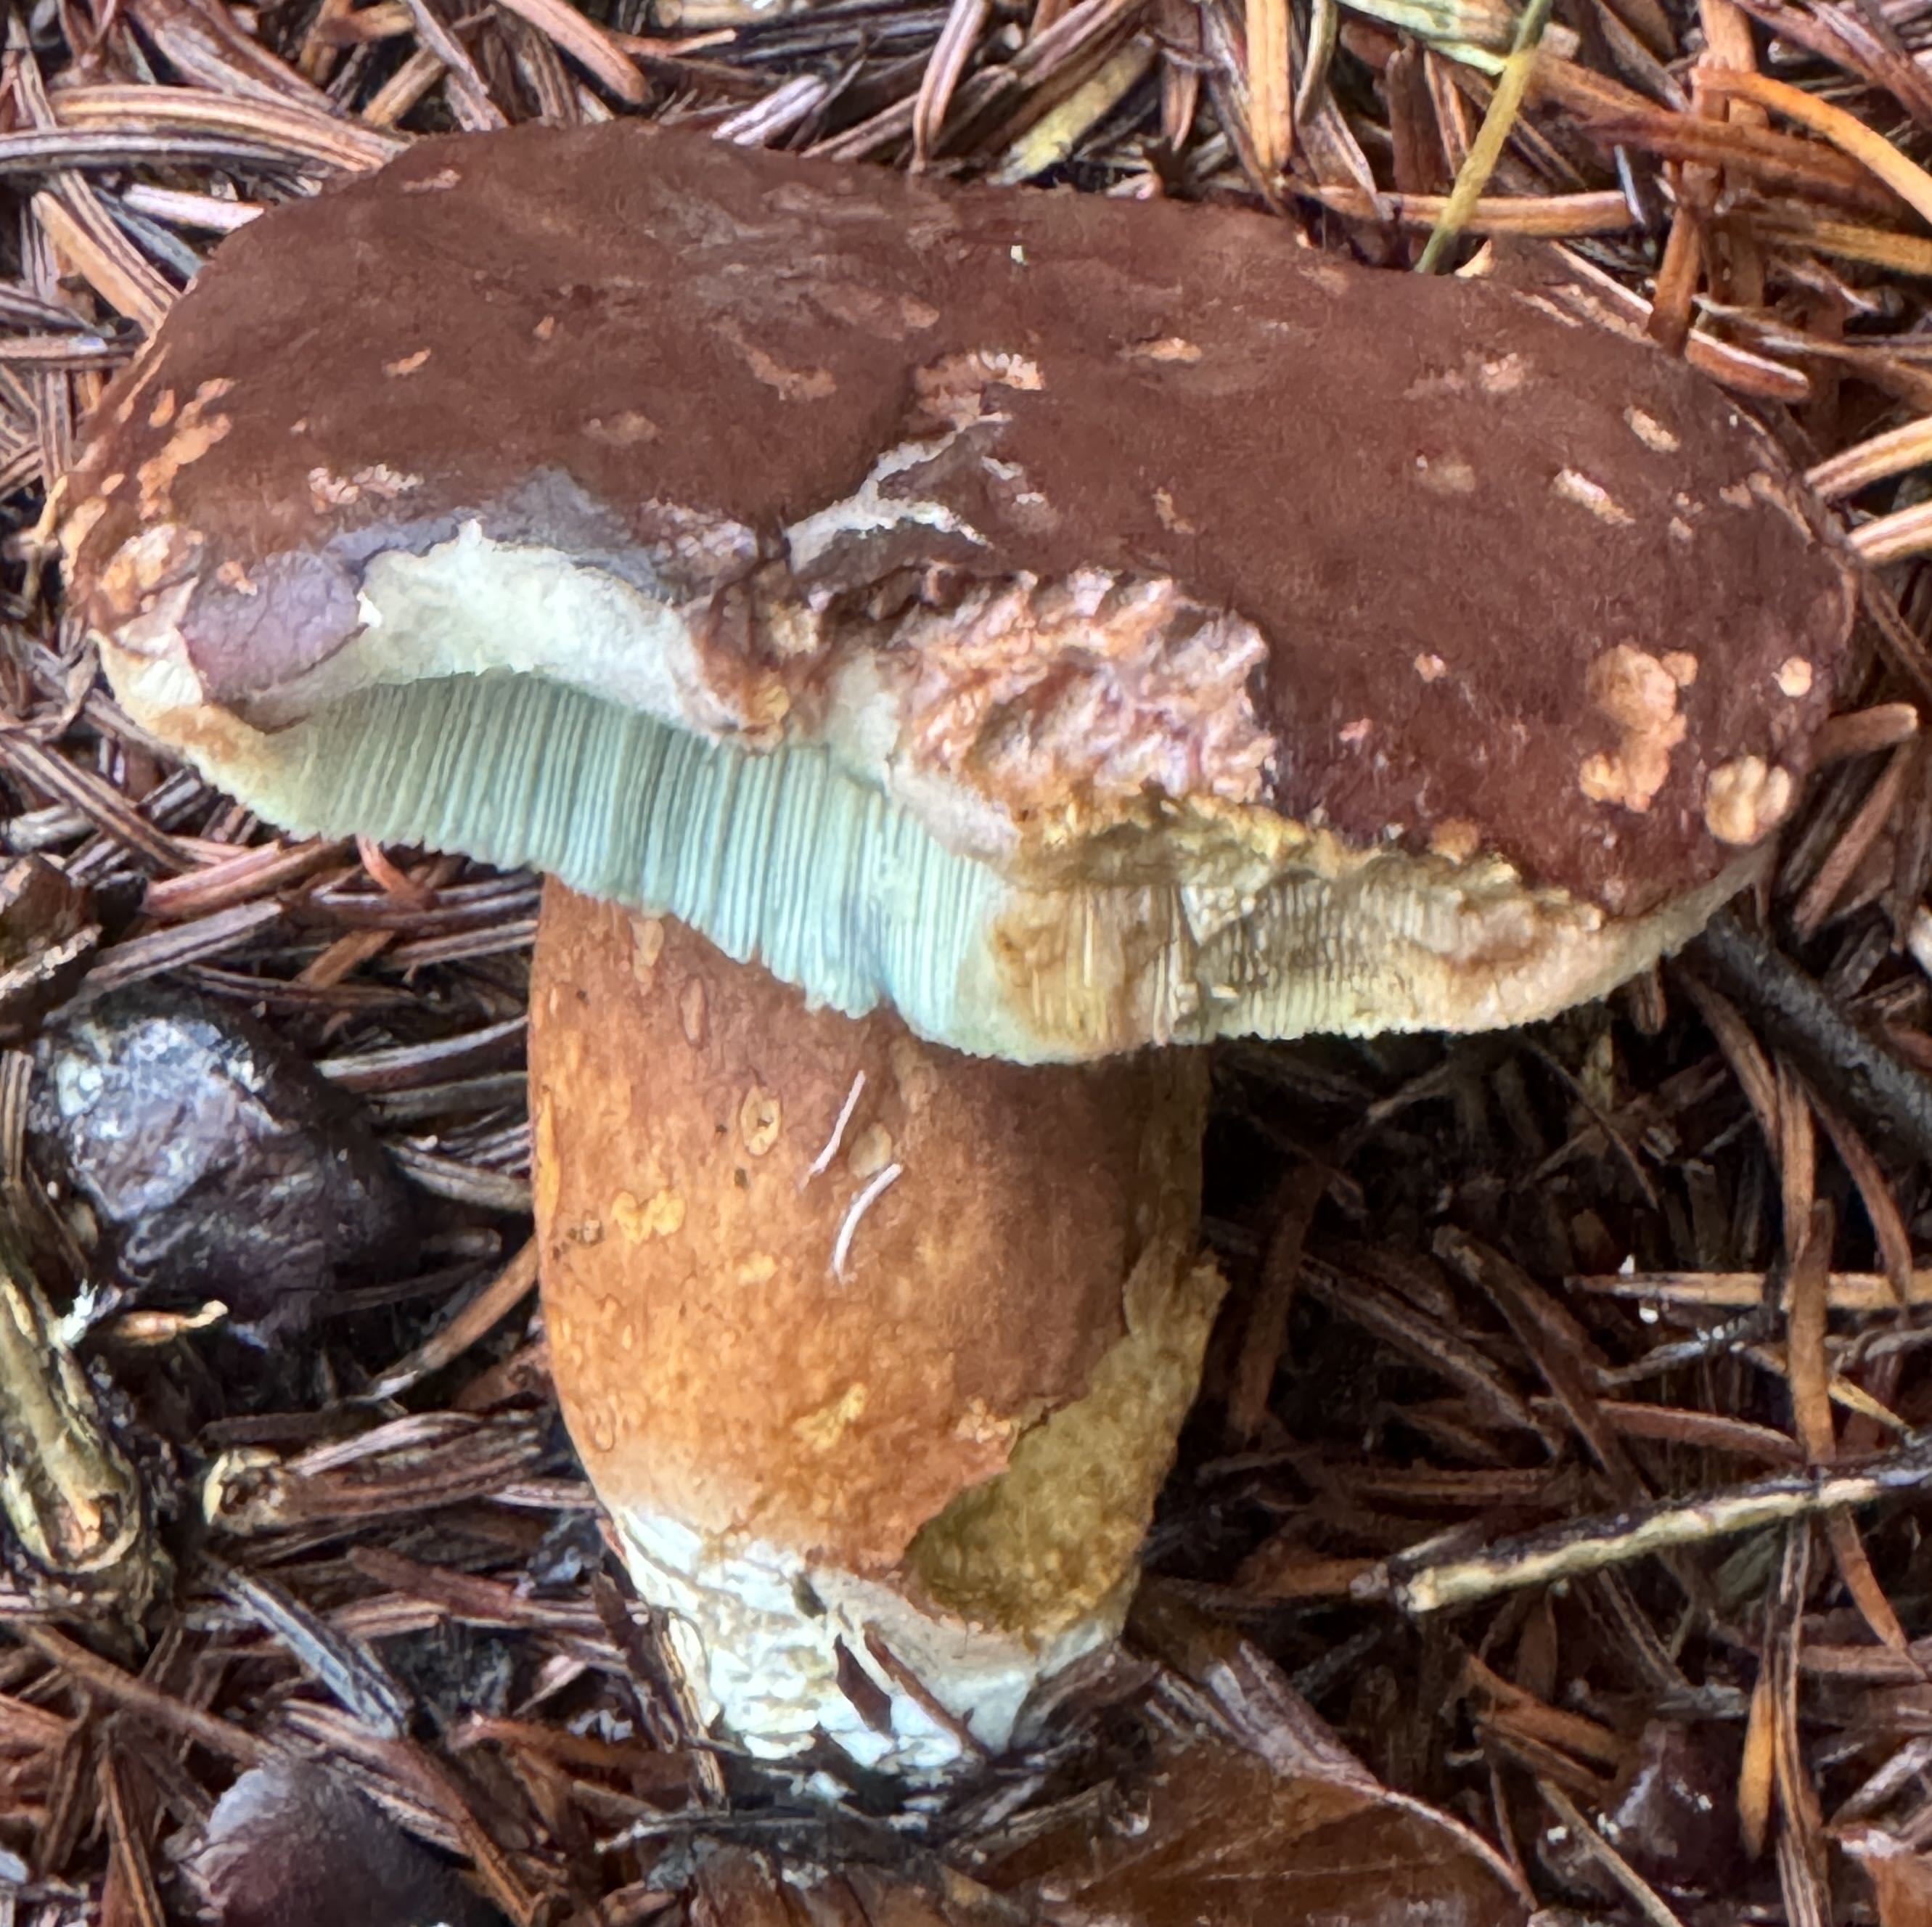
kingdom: Fungi
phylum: Basidiomycota
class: Agaricomycetes
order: Boletales
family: Boletaceae
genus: Imleria
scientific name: Imleria badia
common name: brunstokket rørhat
